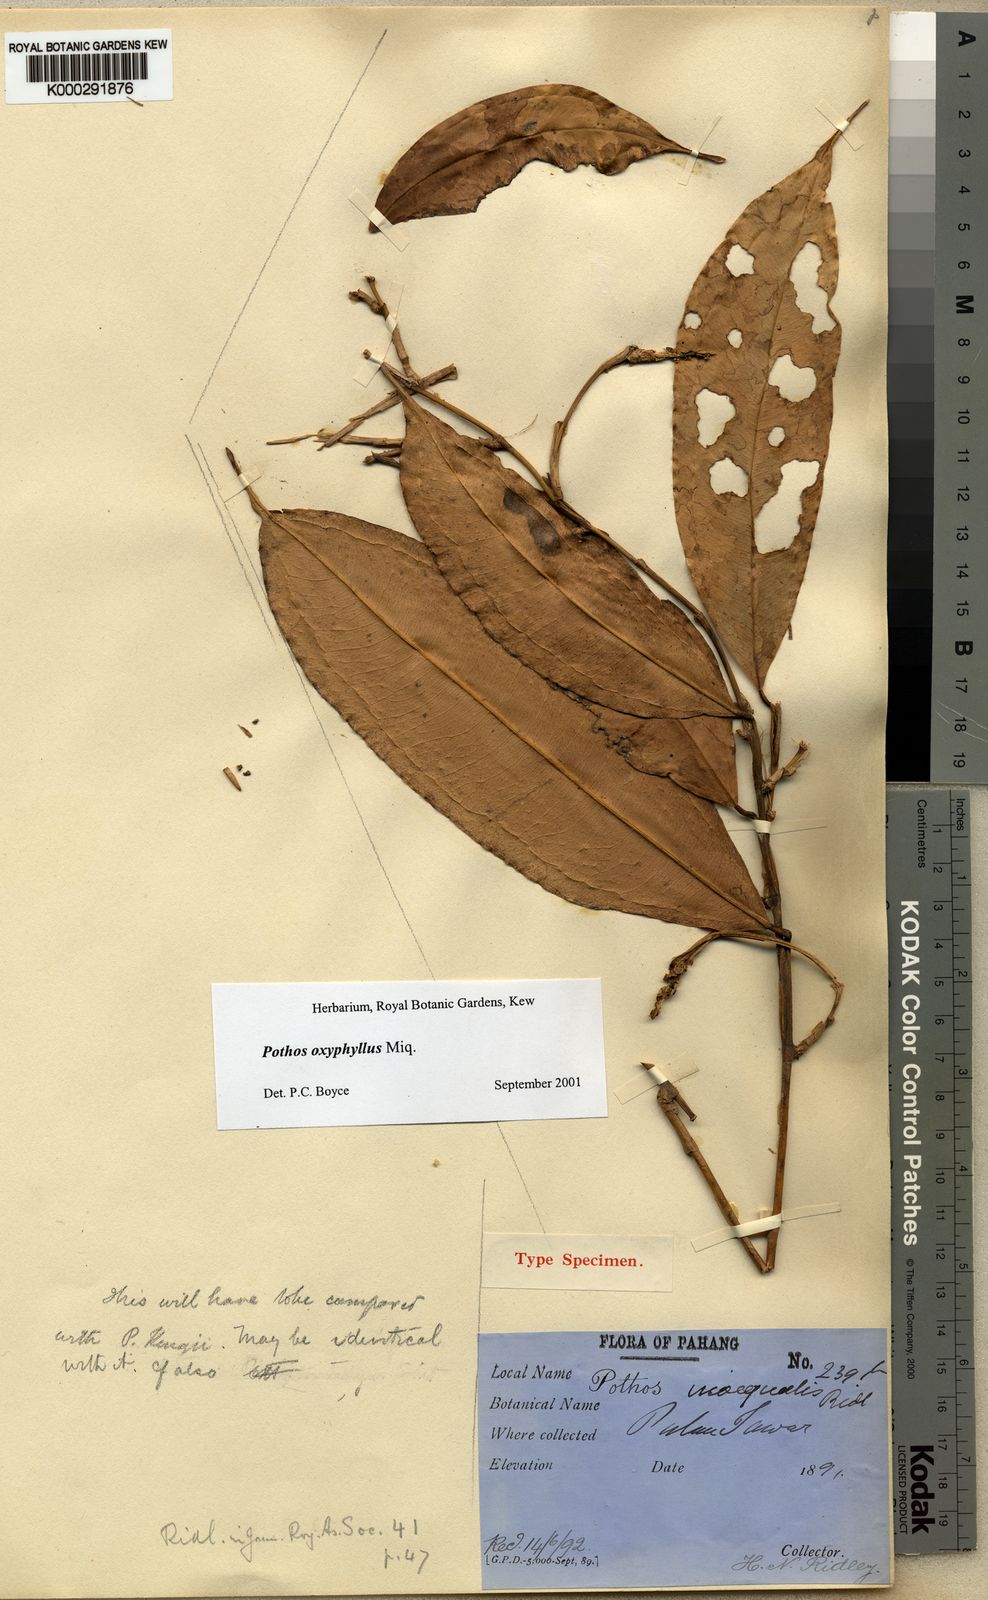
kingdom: Plantae
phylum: Tracheophyta
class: Liliopsida
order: Alismatales
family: Araceae
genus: Pothos
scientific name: Pothos oxyphyllus
